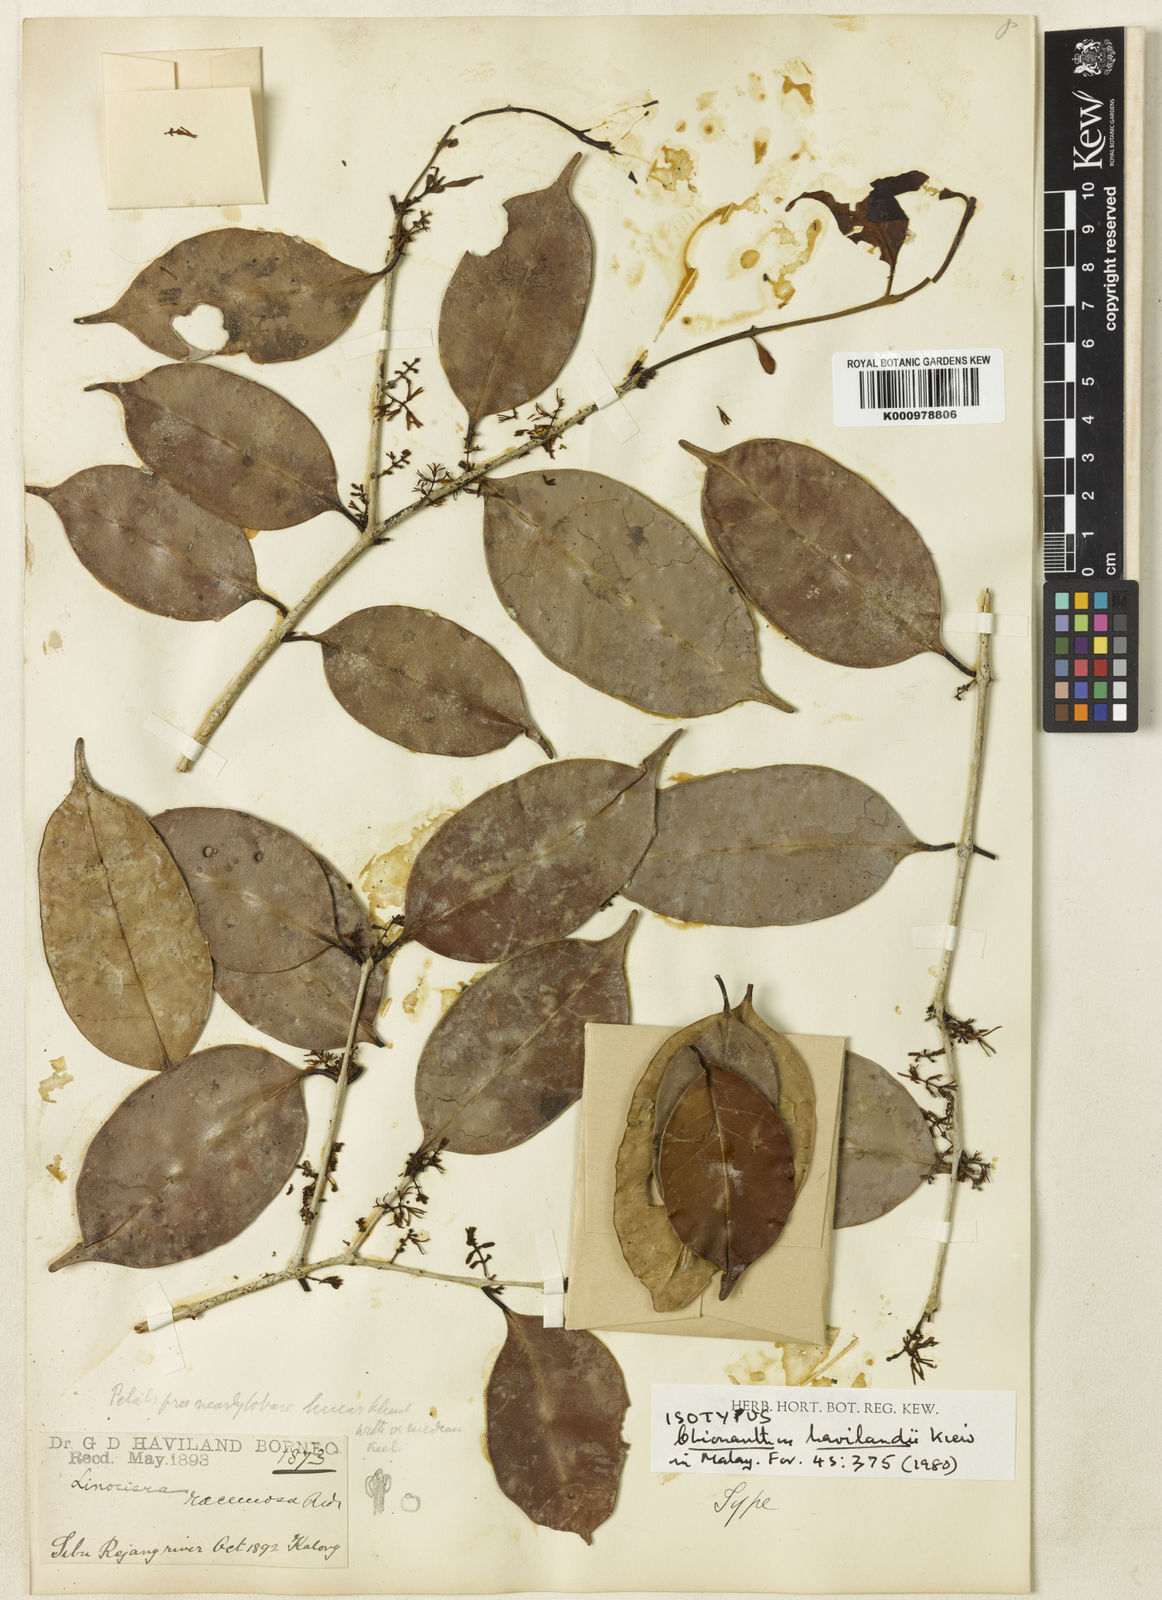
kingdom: Plantae
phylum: Tracheophyta
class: Magnoliopsida
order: Lamiales
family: Oleaceae
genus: Chionanthus
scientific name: Chionanthus havilandii
